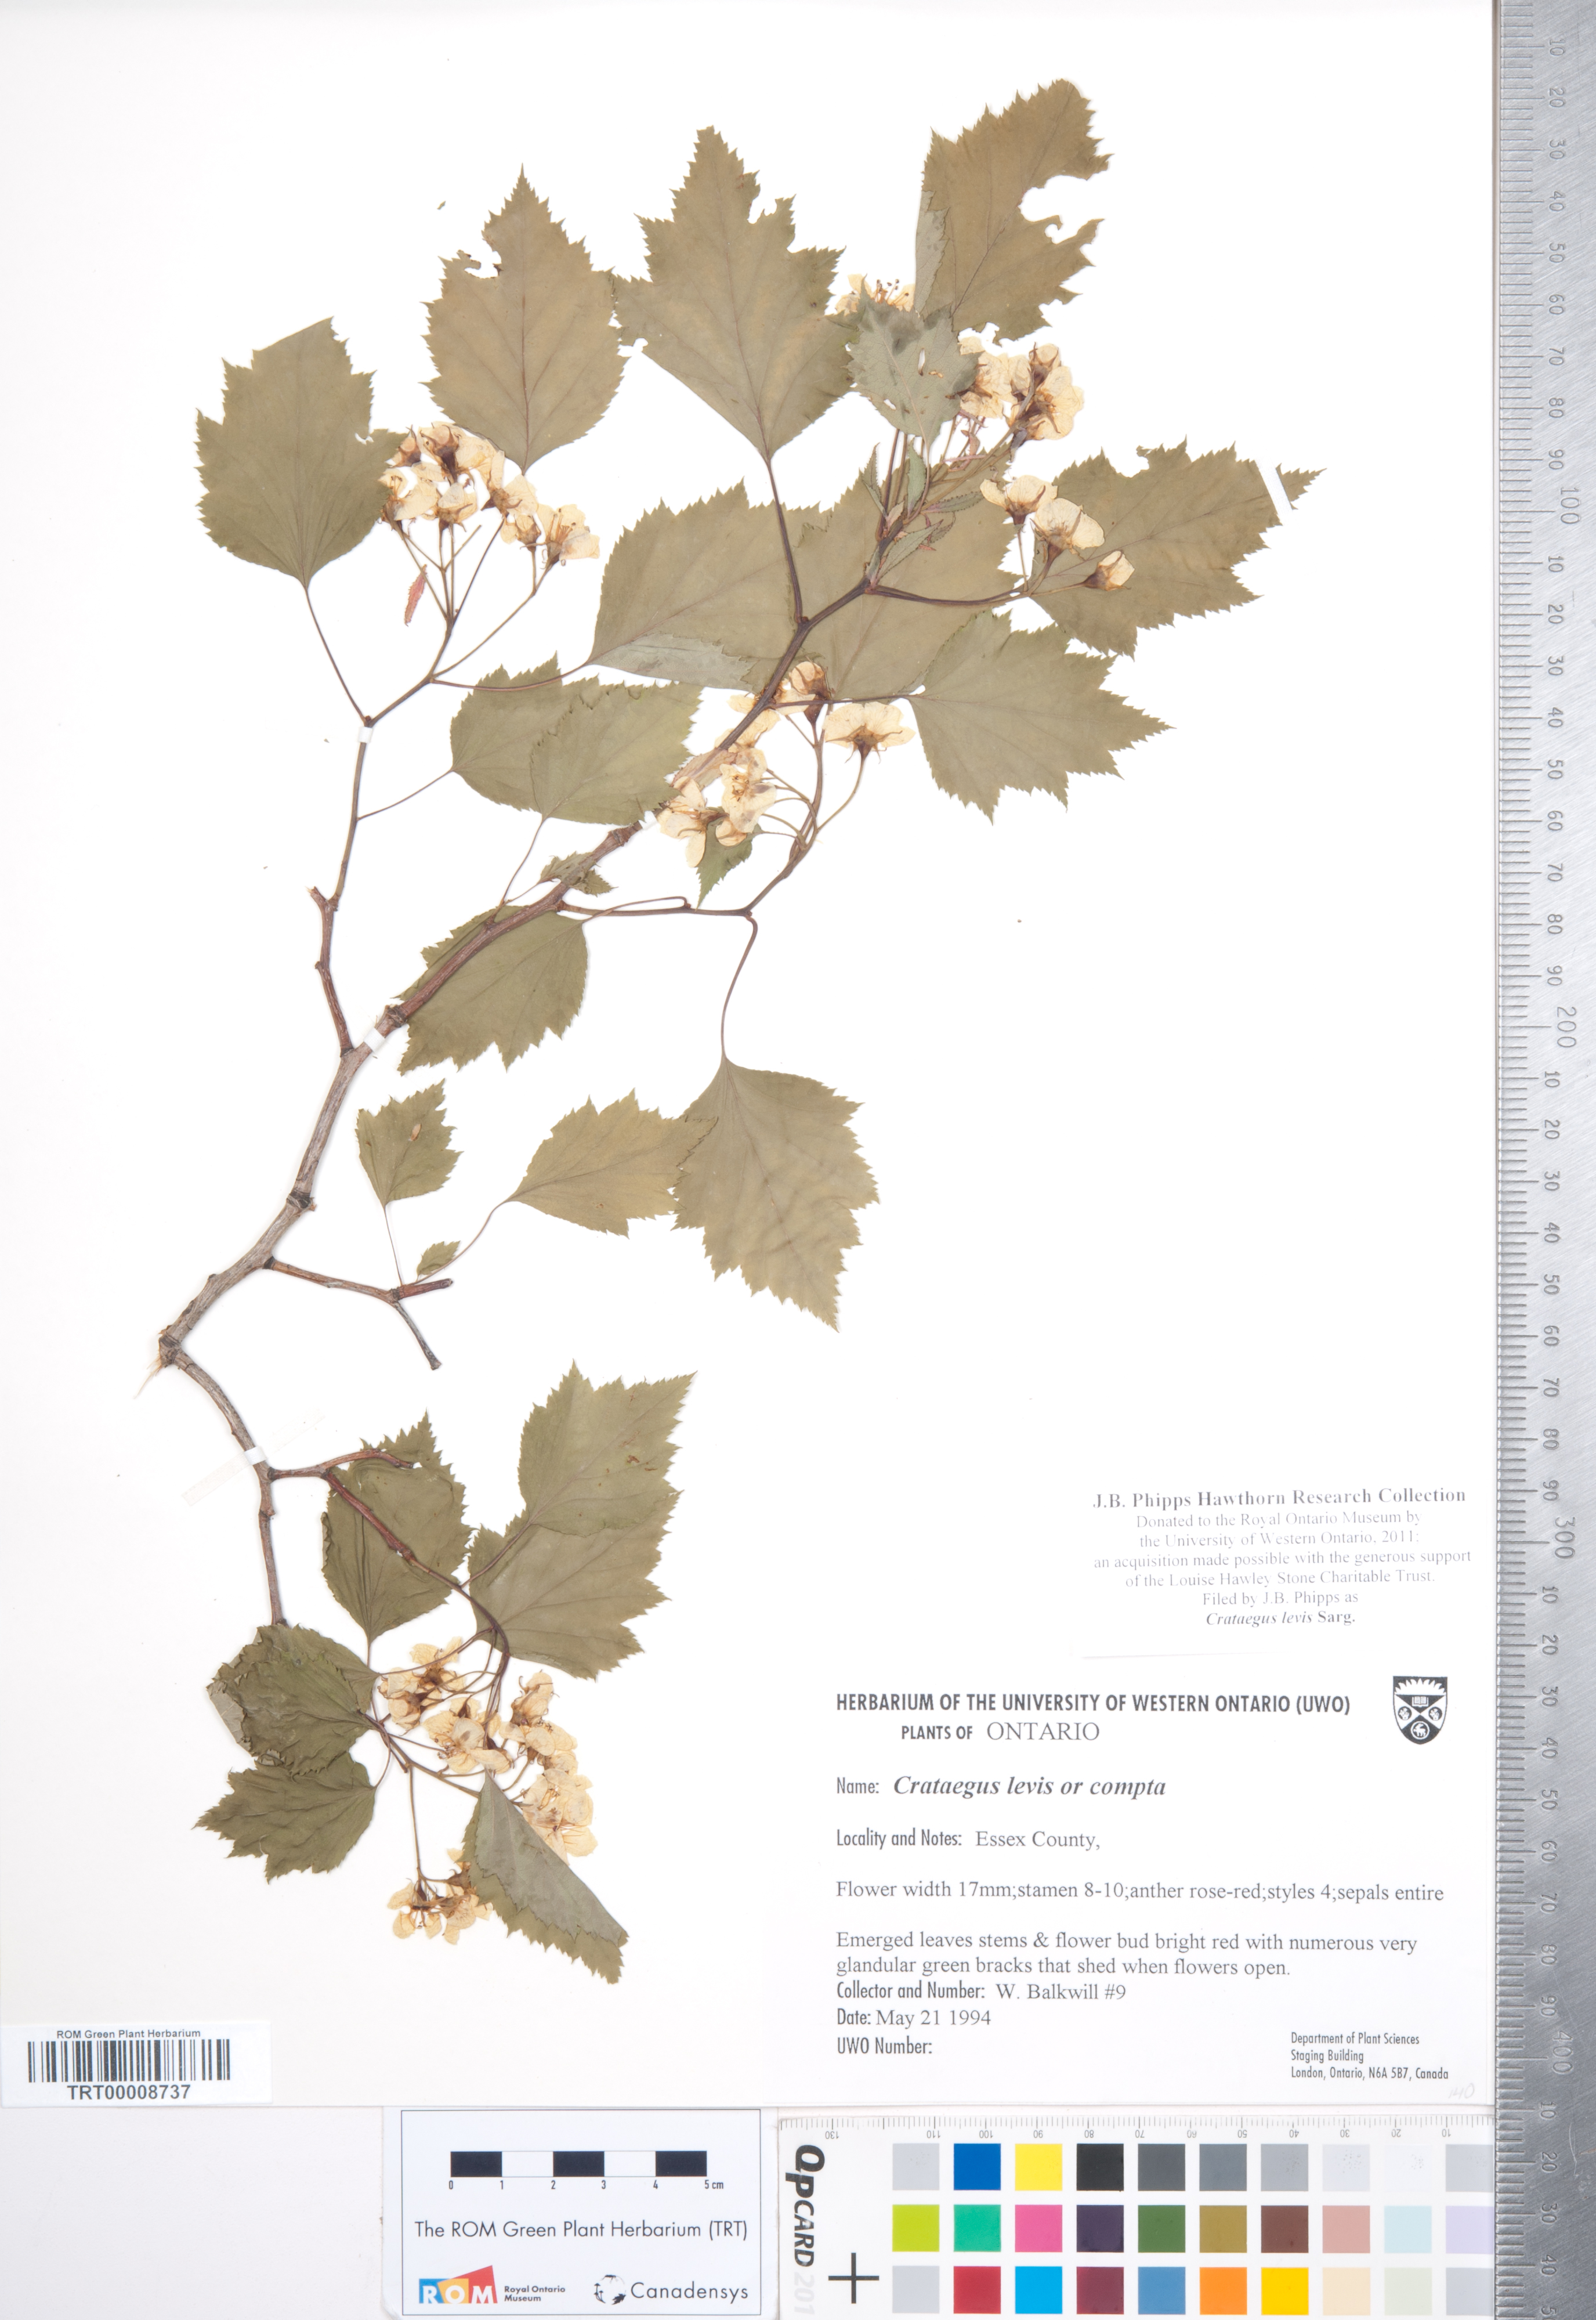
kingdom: Plantae
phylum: Tracheophyta
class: Magnoliopsida
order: Rosales
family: Rosaceae
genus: Crataegus
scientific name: Crataegus iracunda
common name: Stolon-bearing hawthorn
